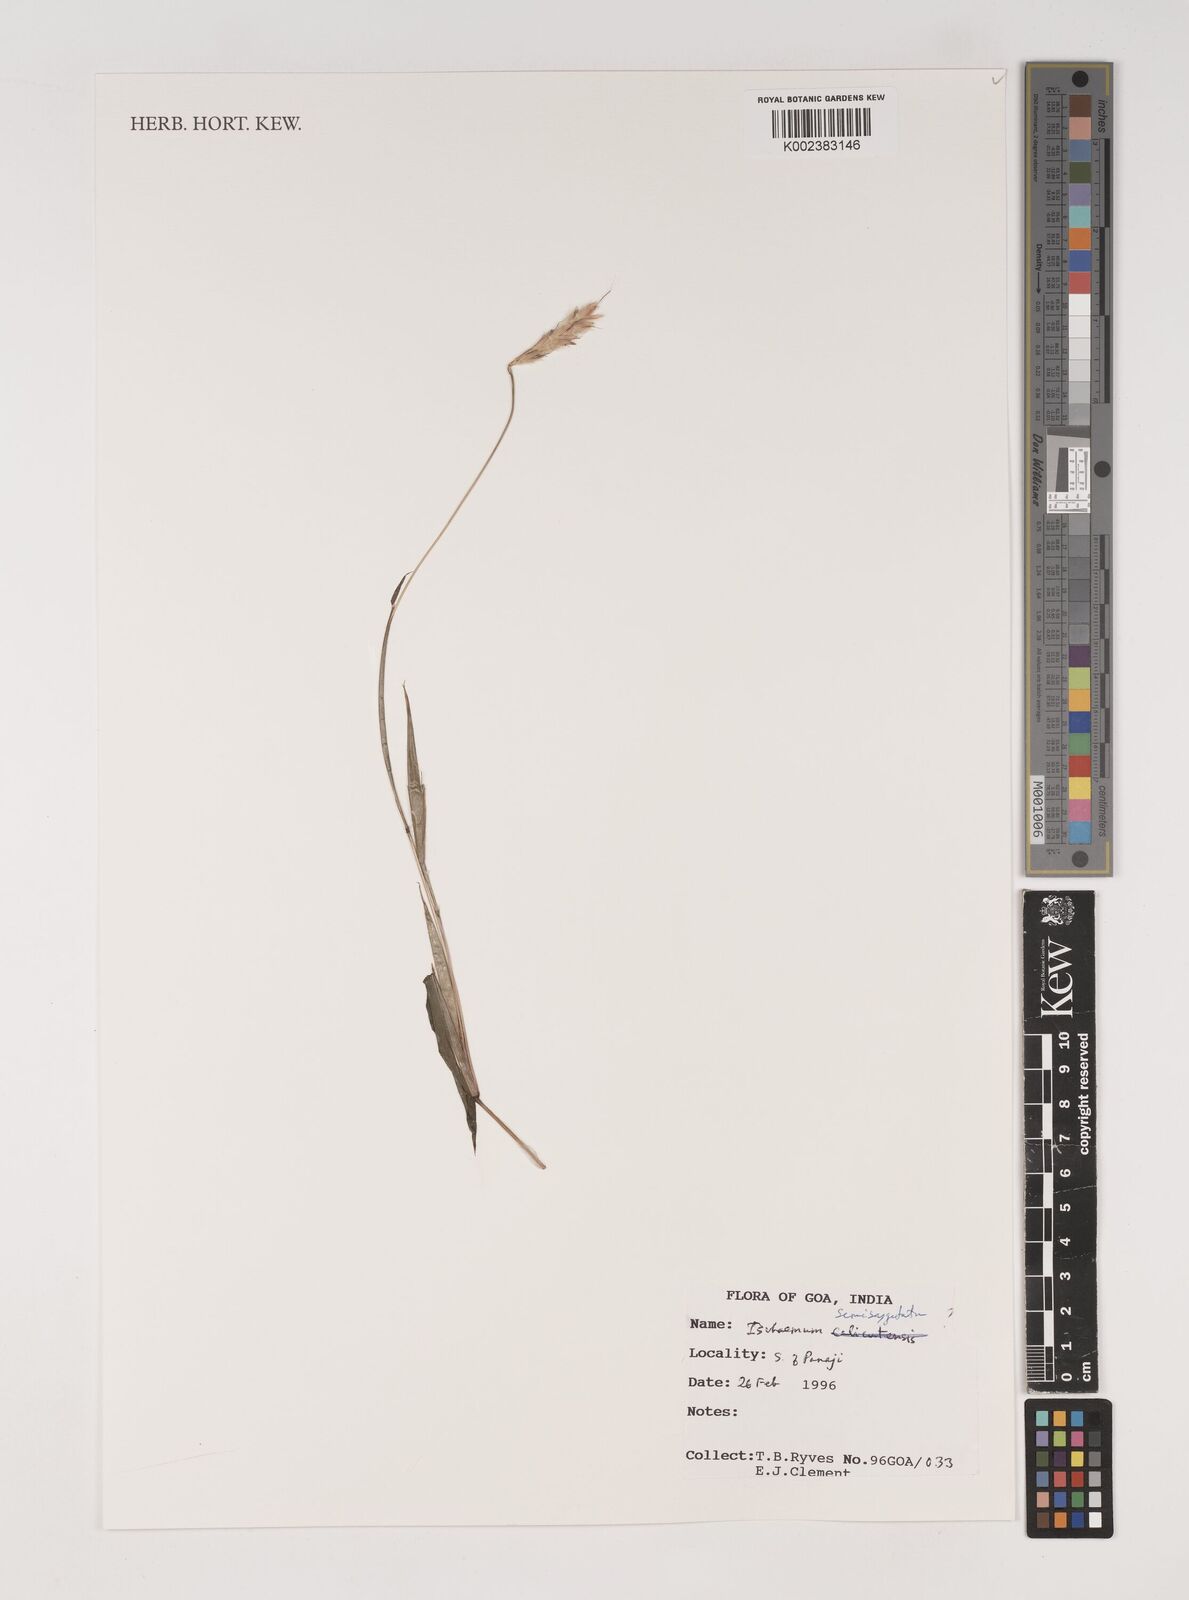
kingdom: Plantae
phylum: Tracheophyta
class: Liliopsida
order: Poales
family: Poaceae
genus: Ischaemum
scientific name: Ischaemum semisagittatum
